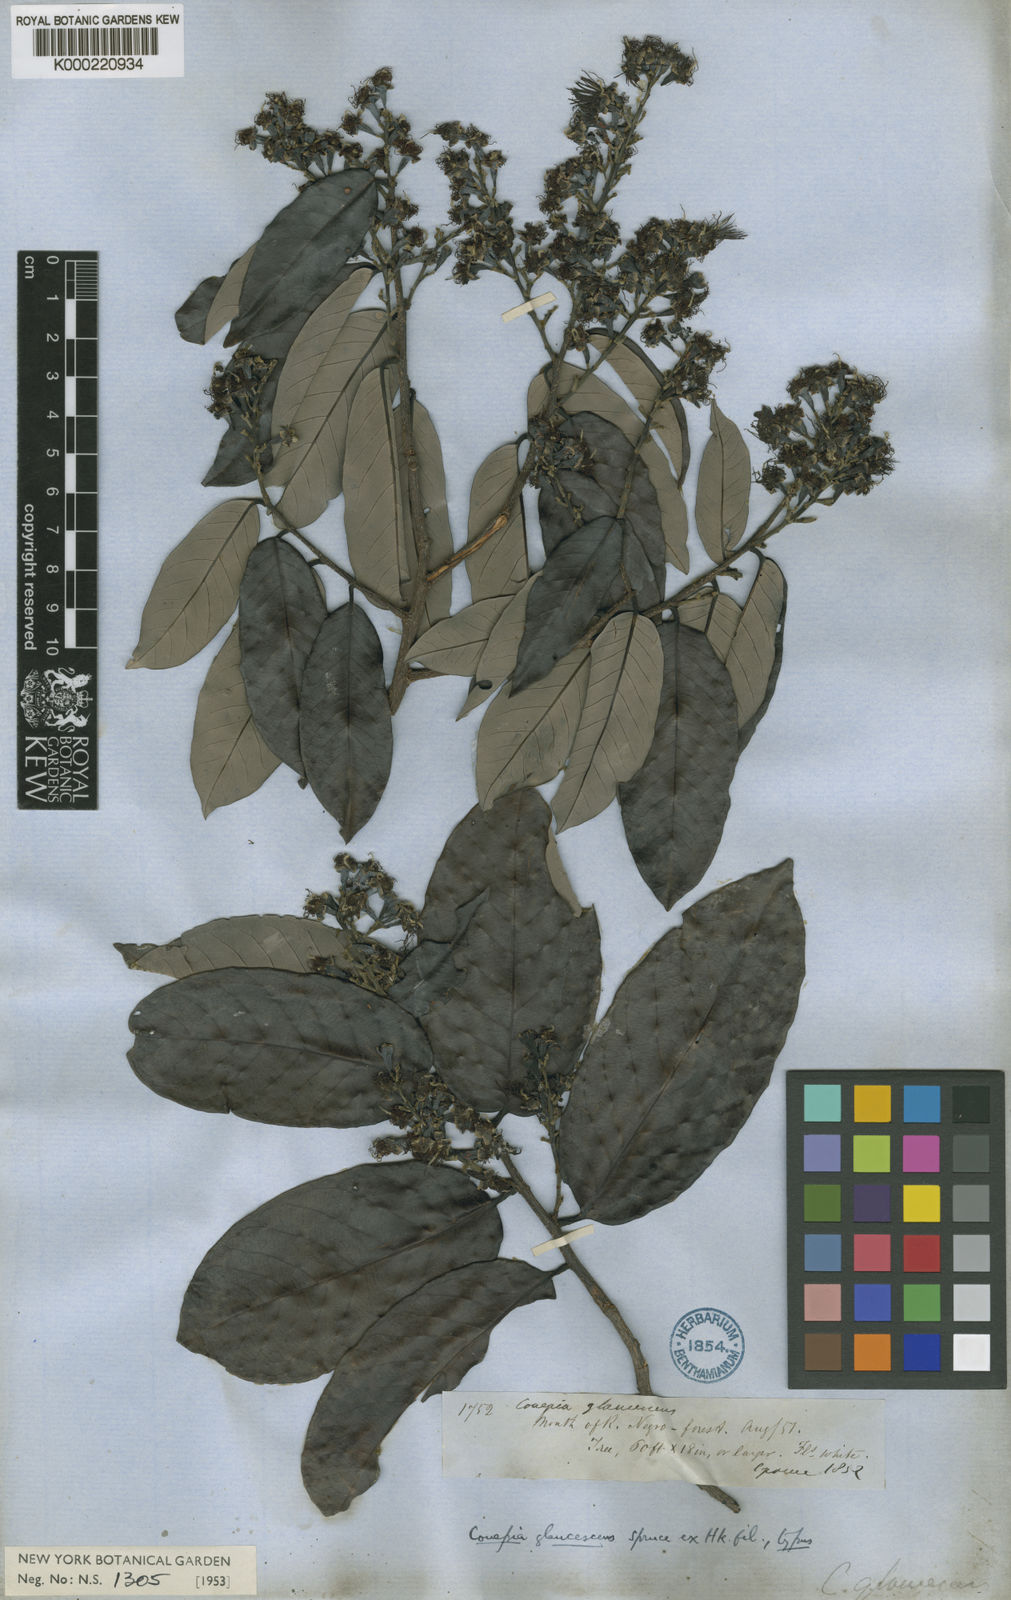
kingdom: Plantae
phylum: Tracheophyta
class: Magnoliopsida
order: Malpighiales
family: Chrysobalanaceae
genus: Couepia
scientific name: Couepia paraensis
